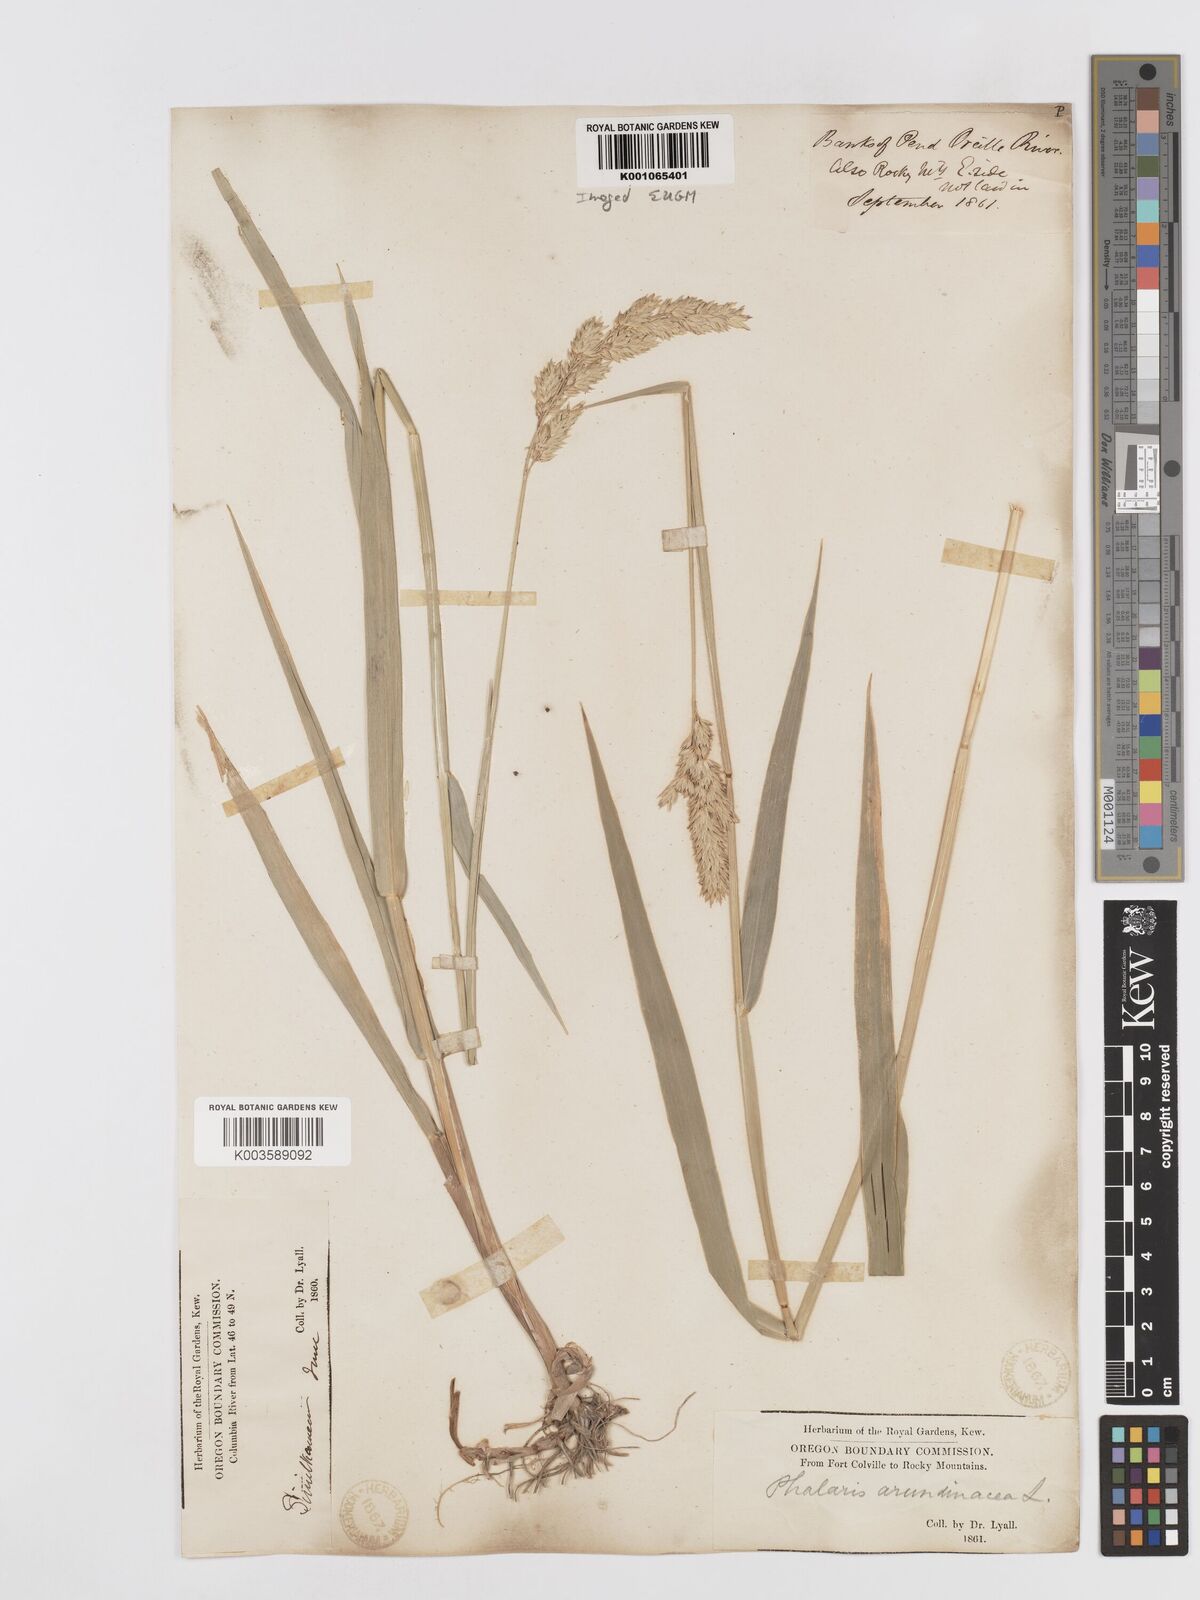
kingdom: Plantae
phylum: Tracheophyta
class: Liliopsida
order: Poales
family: Poaceae
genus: Phalaris
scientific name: Phalaris arundinacea
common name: Reed canary-grass
